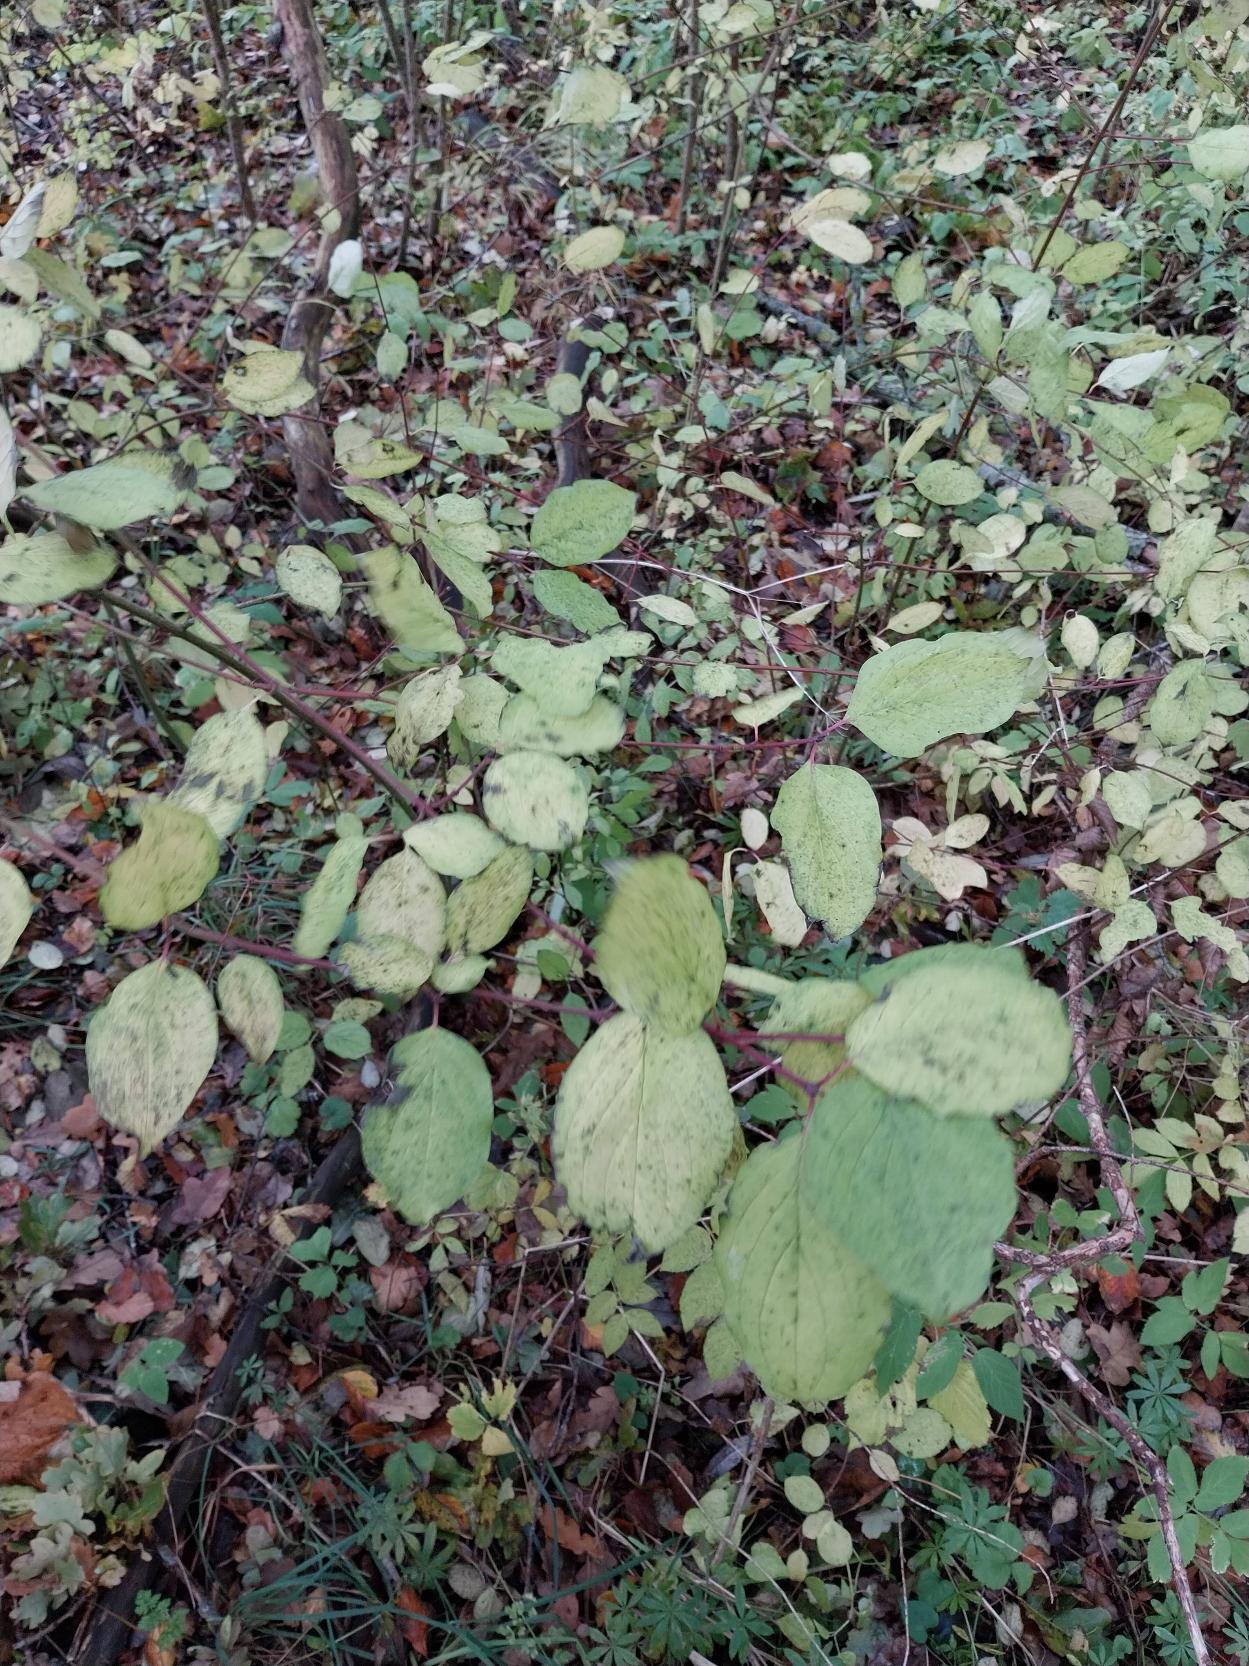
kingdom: Plantae
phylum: Tracheophyta
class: Magnoliopsida
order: Cornales
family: Cornaceae
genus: Cornus
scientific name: Cornus sanguinea
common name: Rød kornel
